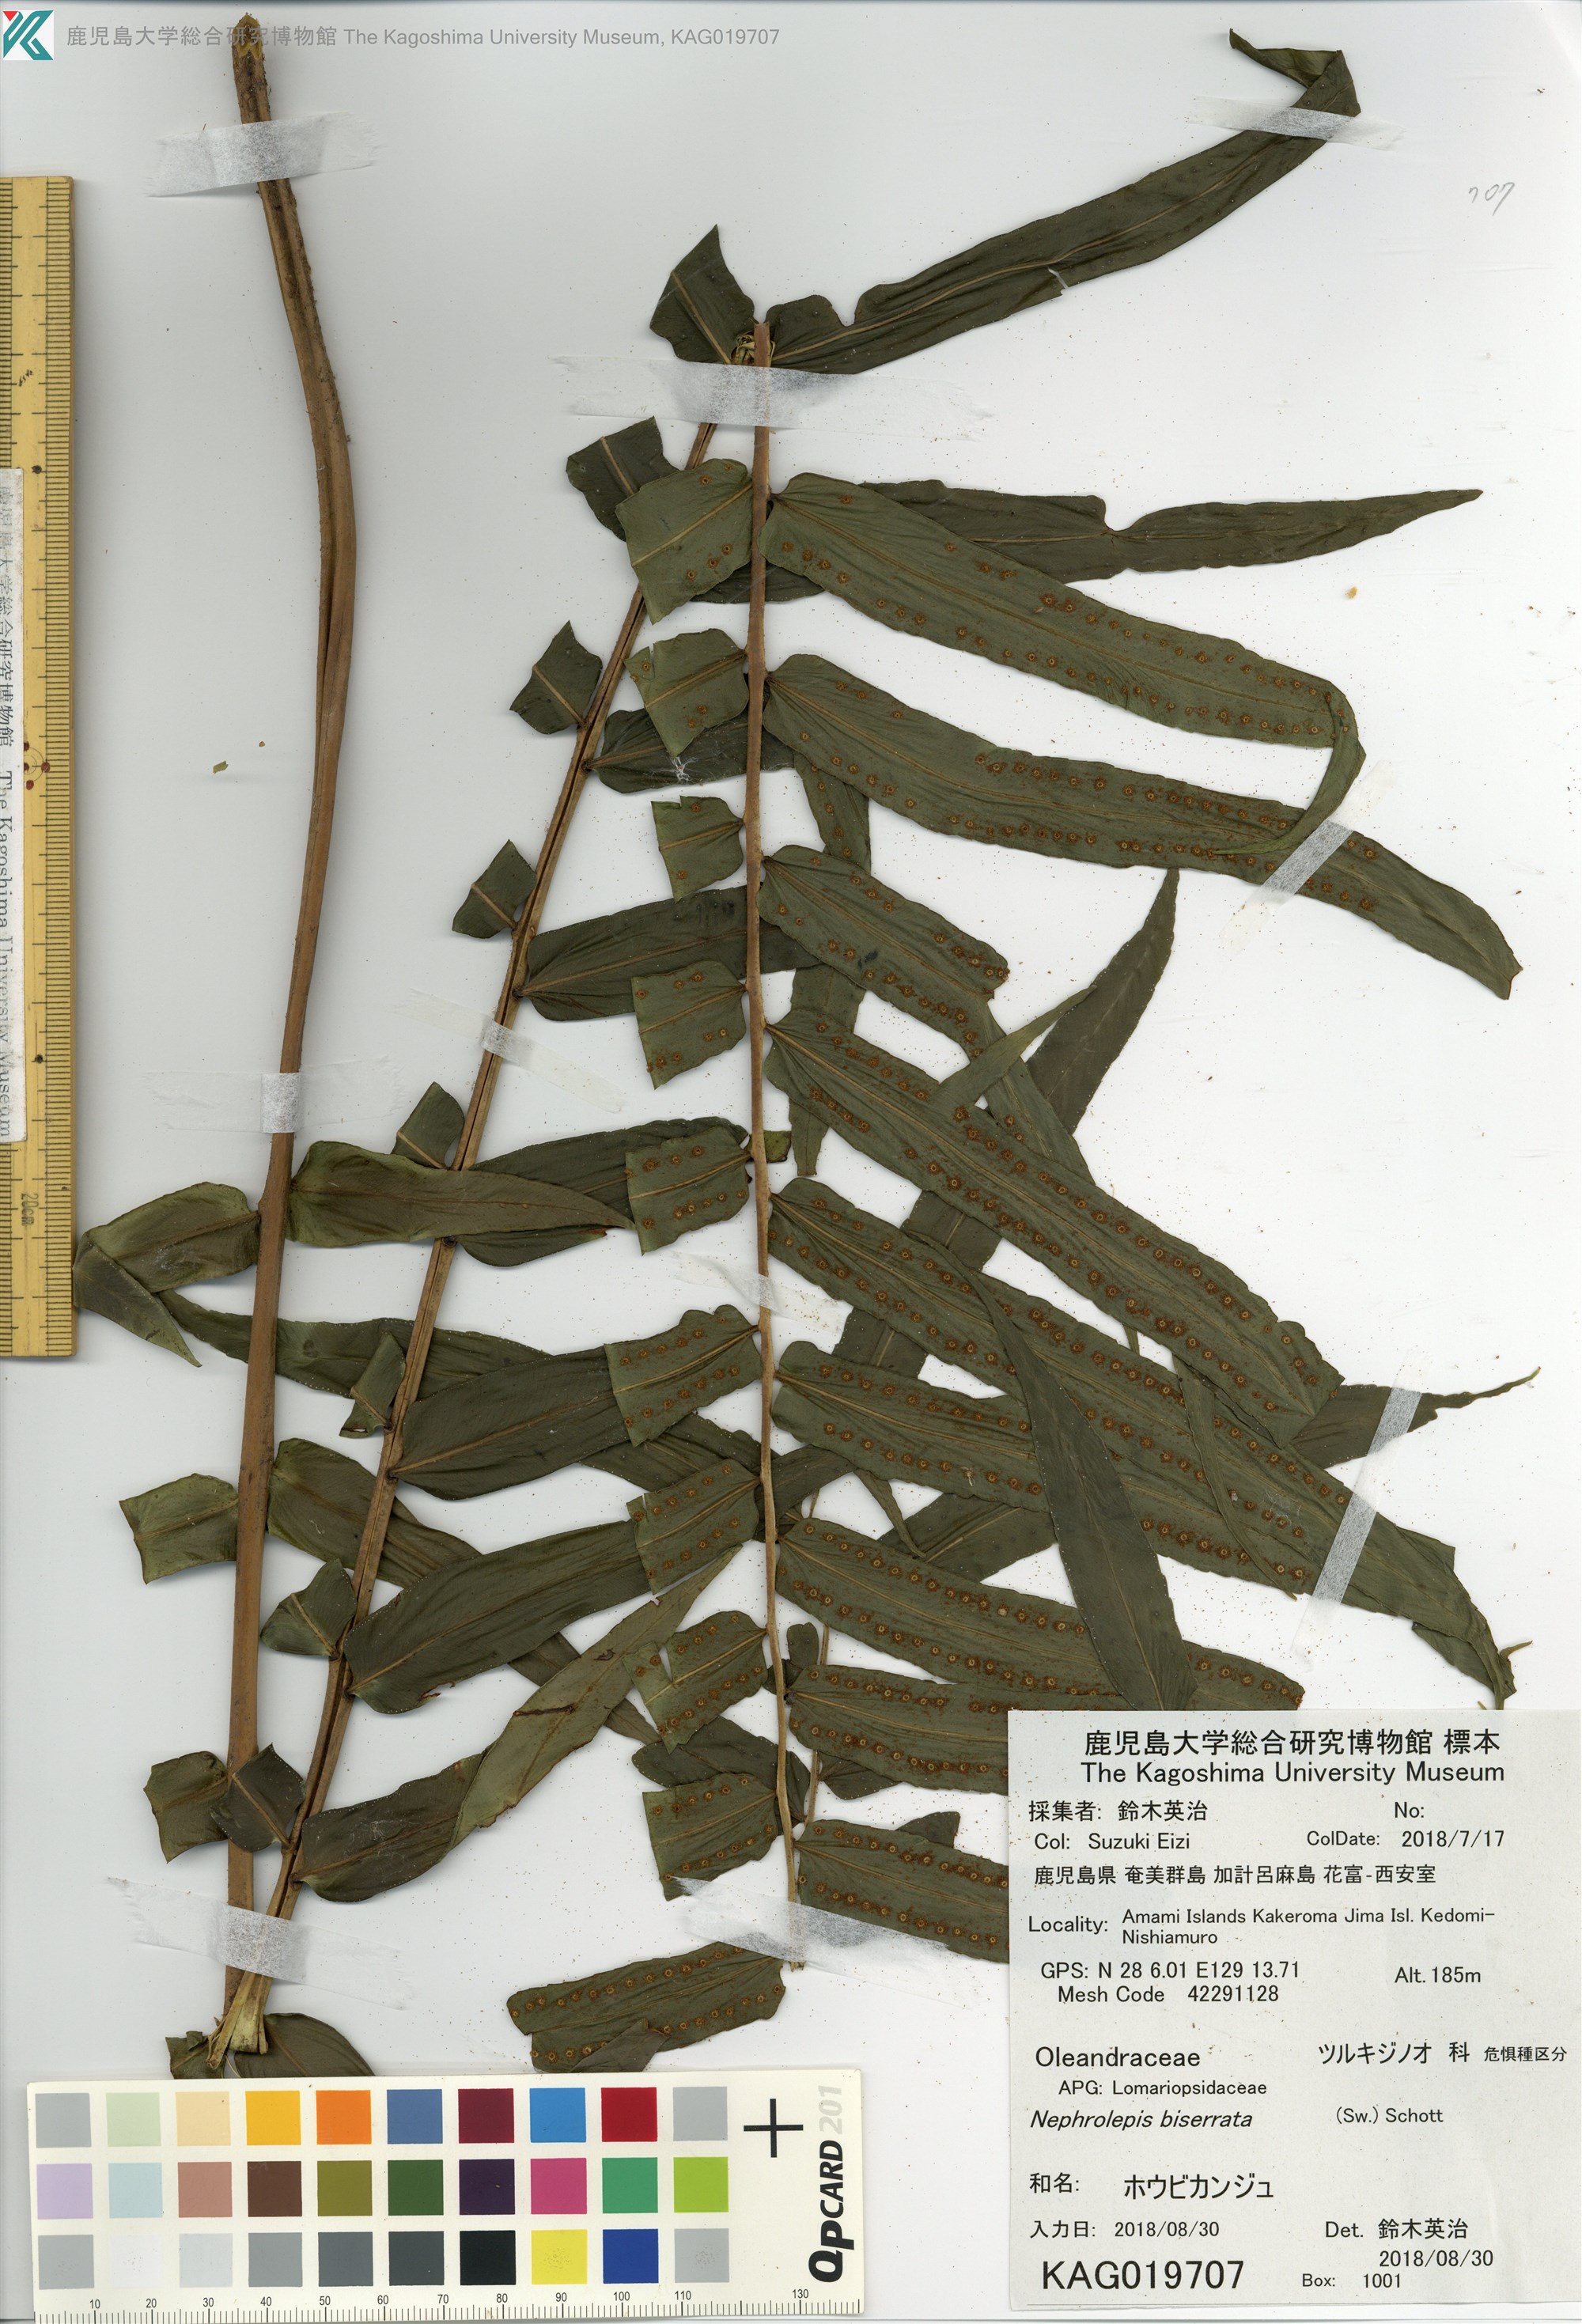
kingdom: Plantae
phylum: Tracheophyta
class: Polypodiopsida
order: Polypodiales
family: Nephrolepidaceae
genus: Nephrolepis
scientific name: Nephrolepis biserrata
